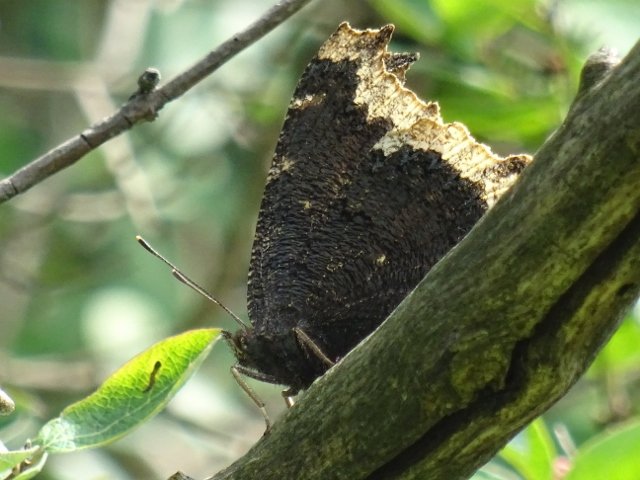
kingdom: Animalia
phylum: Arthropoda
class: Insecta
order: Lepidoptera
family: Nymphalidae
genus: Nymphalis
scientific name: Nymphalis antiopa
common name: Mourning Cloak
